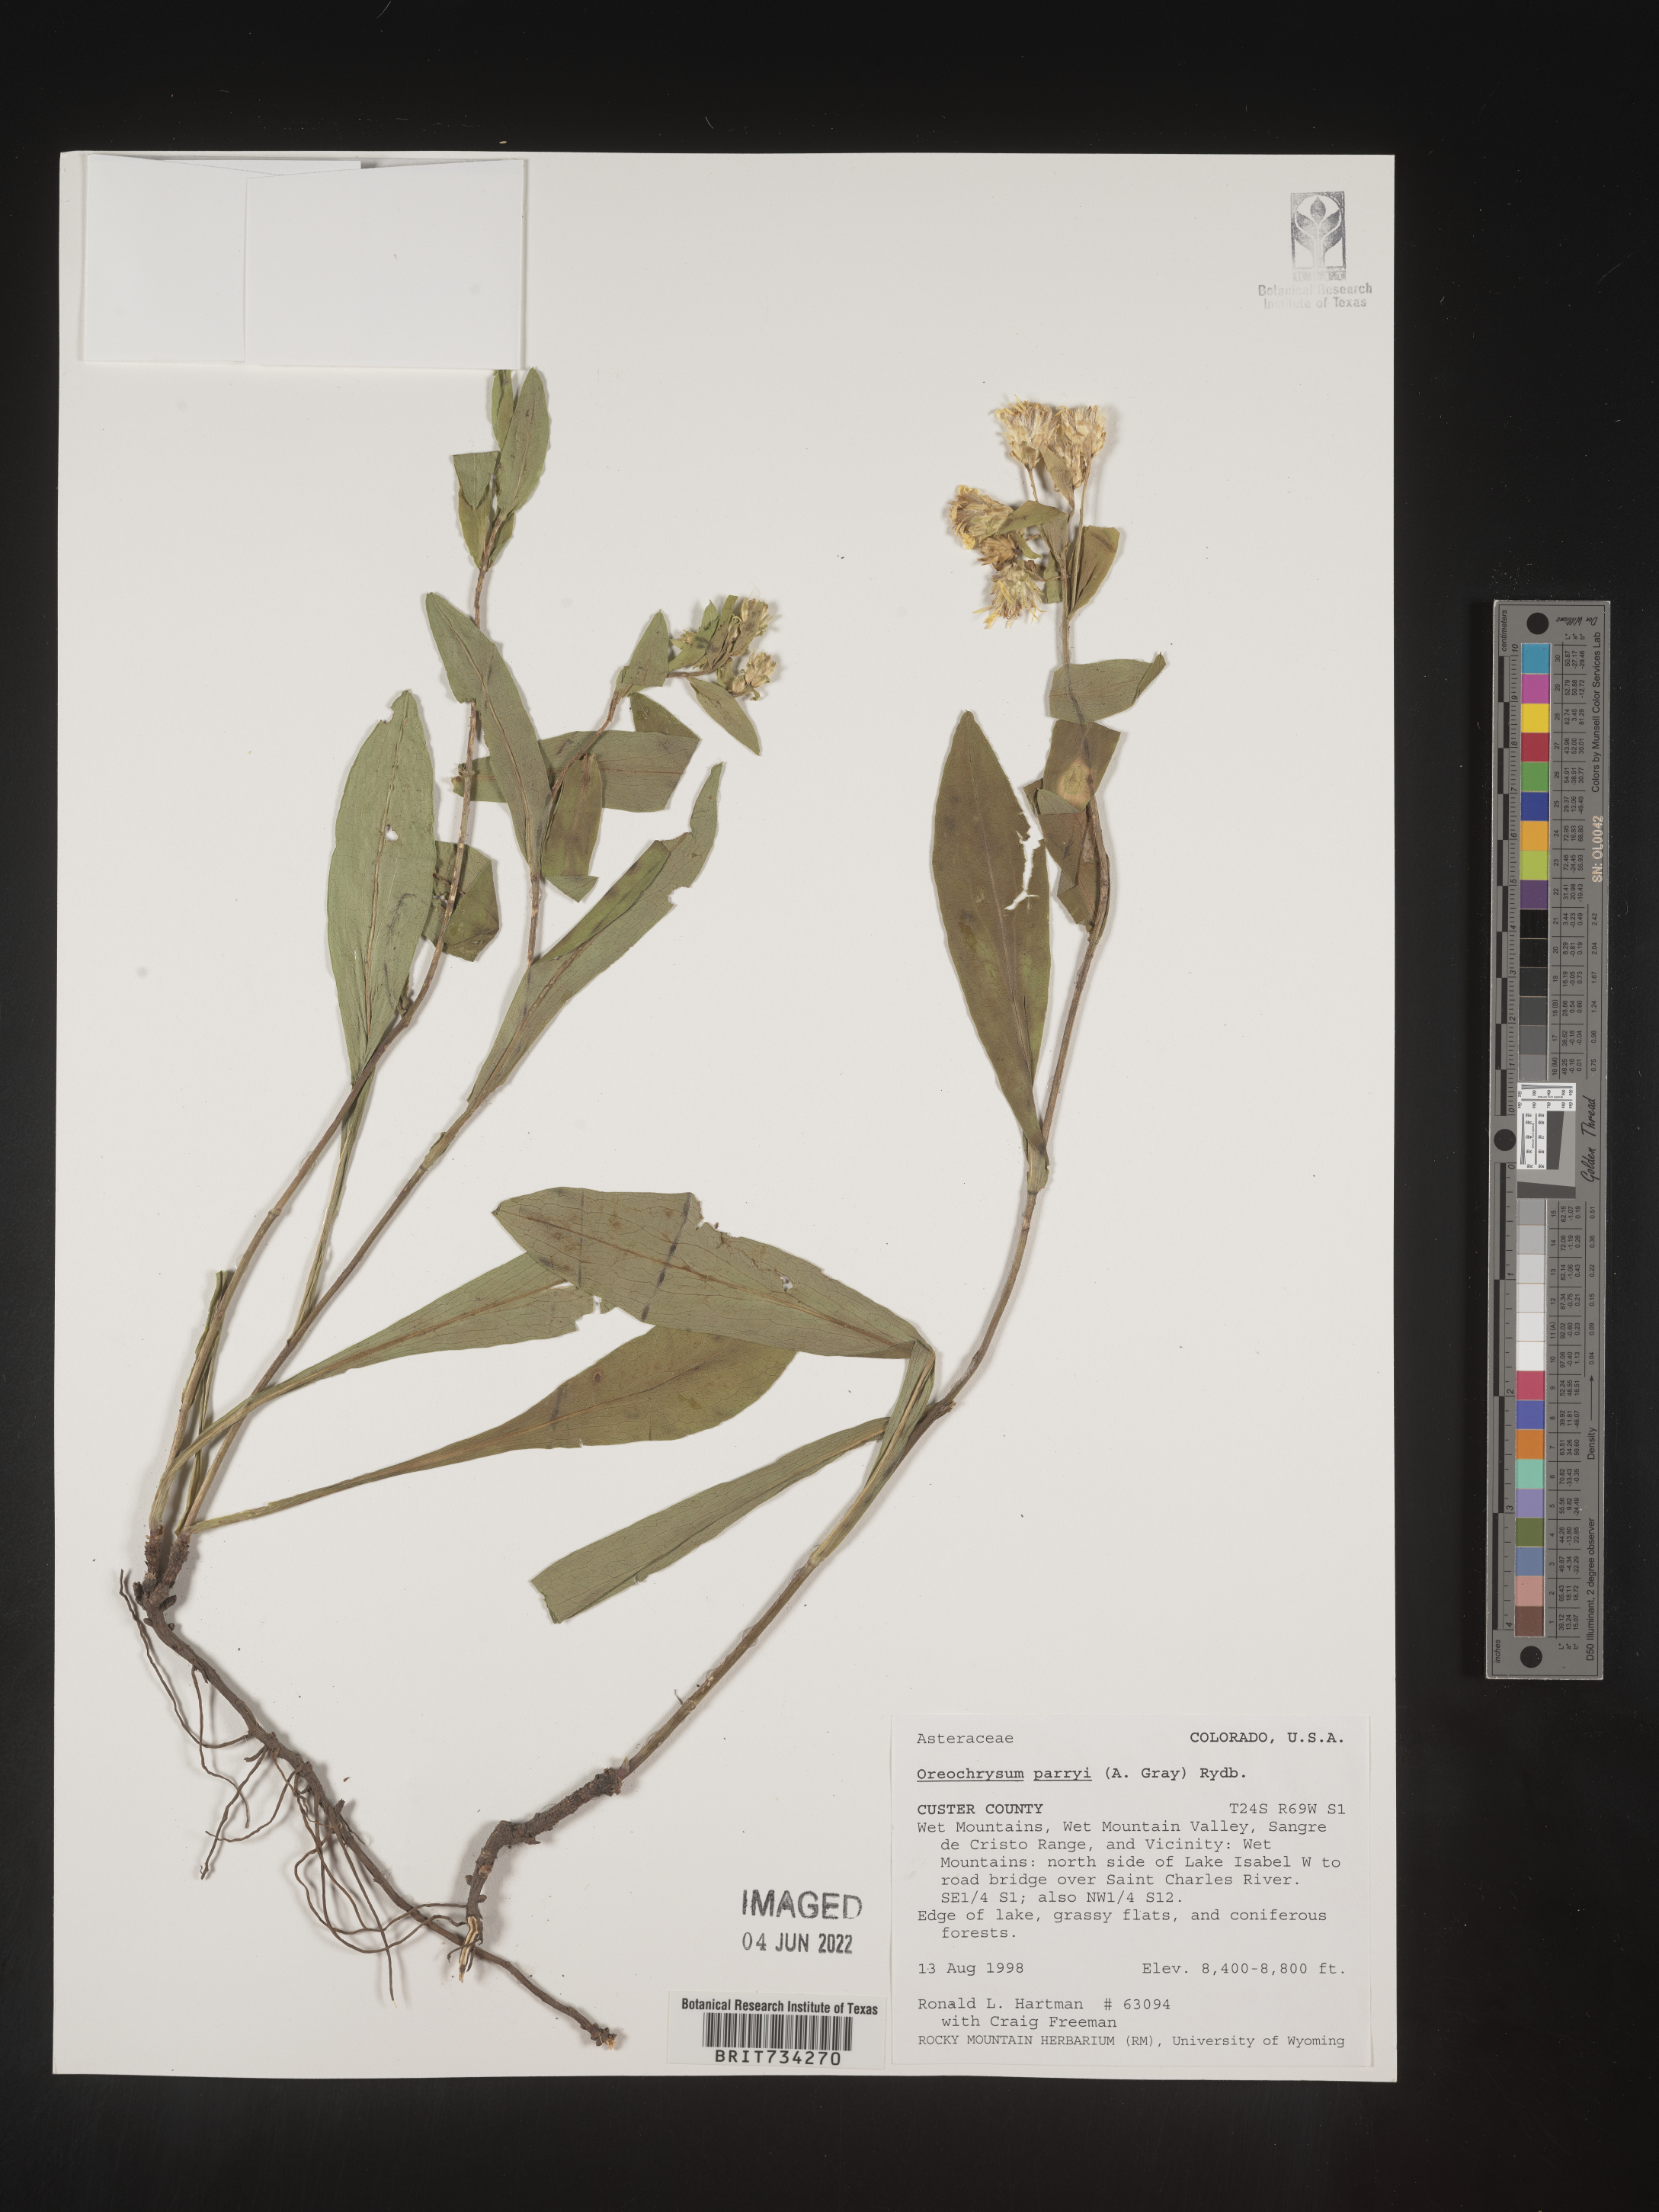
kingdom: Plantae
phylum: Tracheophyta
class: Magnoliopsida
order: Asterales
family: Asteraceae
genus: Oreochrysum
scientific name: Oreochrysum parryi
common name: Parry's goldenweed
